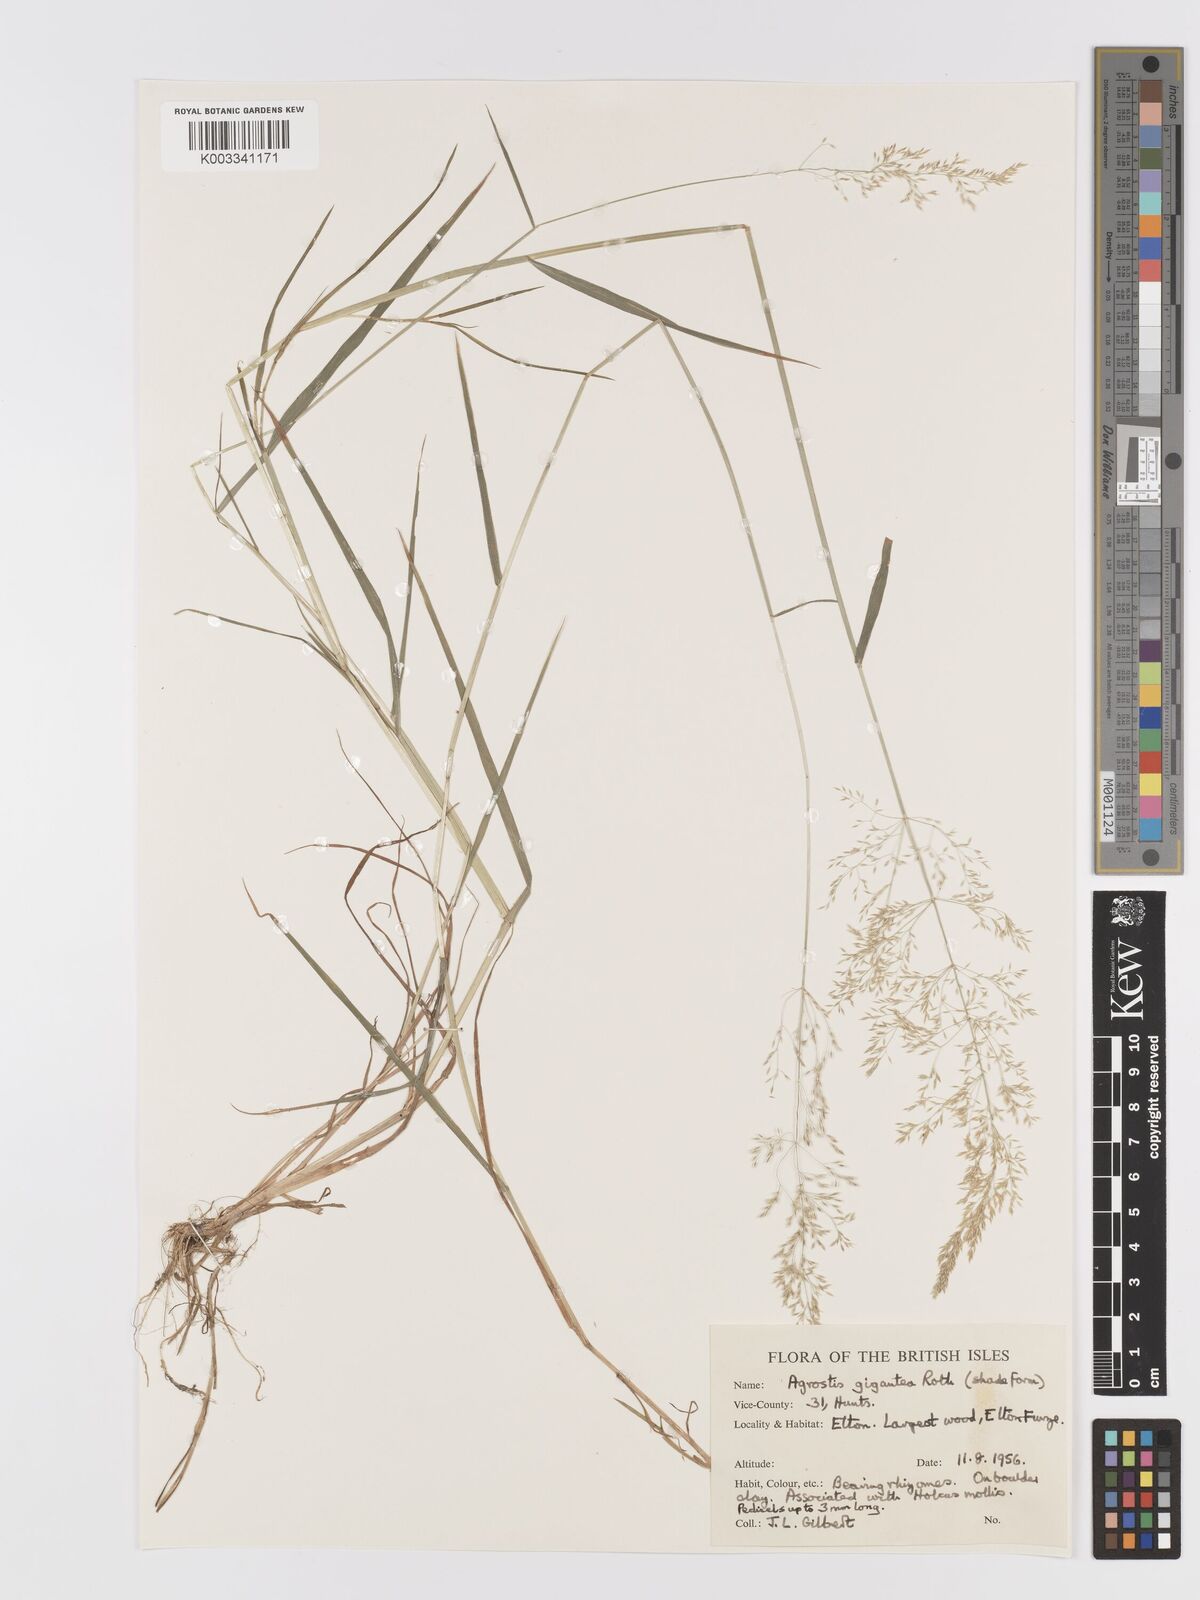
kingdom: Plantae
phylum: Tracheophyta
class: Liliopsida
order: Poales
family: Poaceae
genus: Agrostis
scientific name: Agrostis gigantea
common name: Black bent
